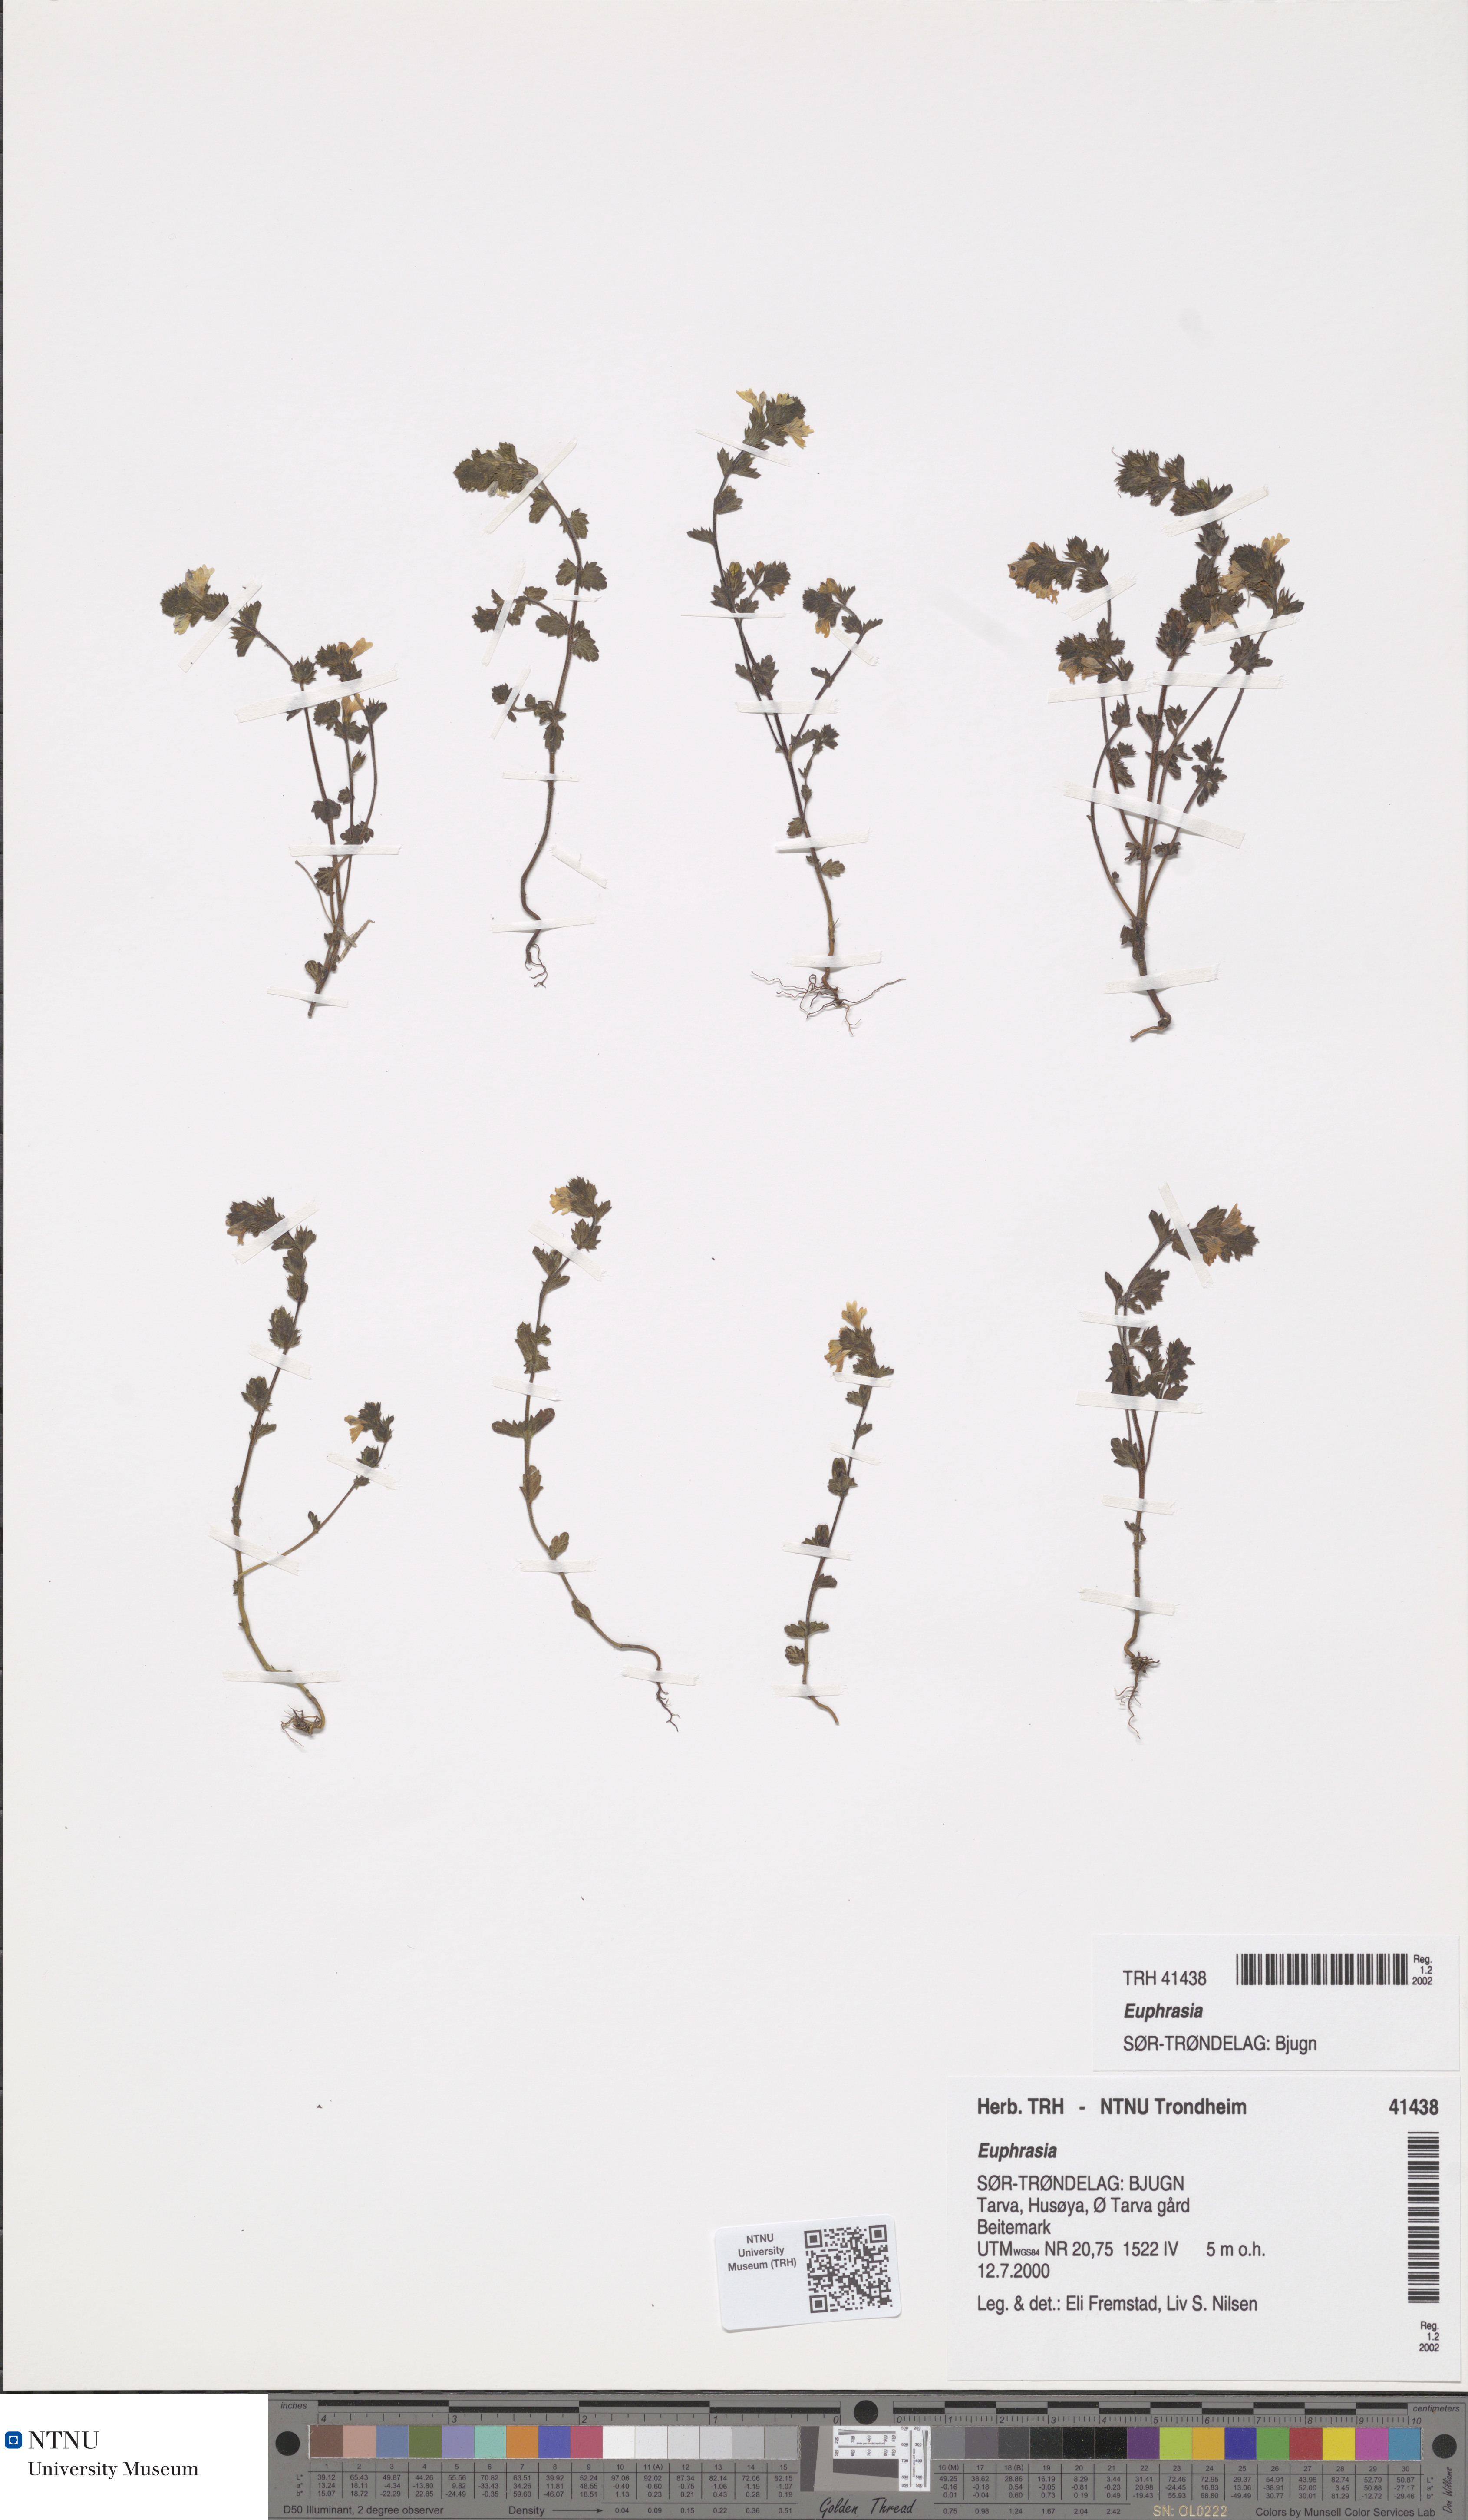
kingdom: Plantae
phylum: Tracheophyta
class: Magnoliopsida
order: Lamiales
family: Orobanchaceae
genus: Euphrasia
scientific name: Euphrasia
